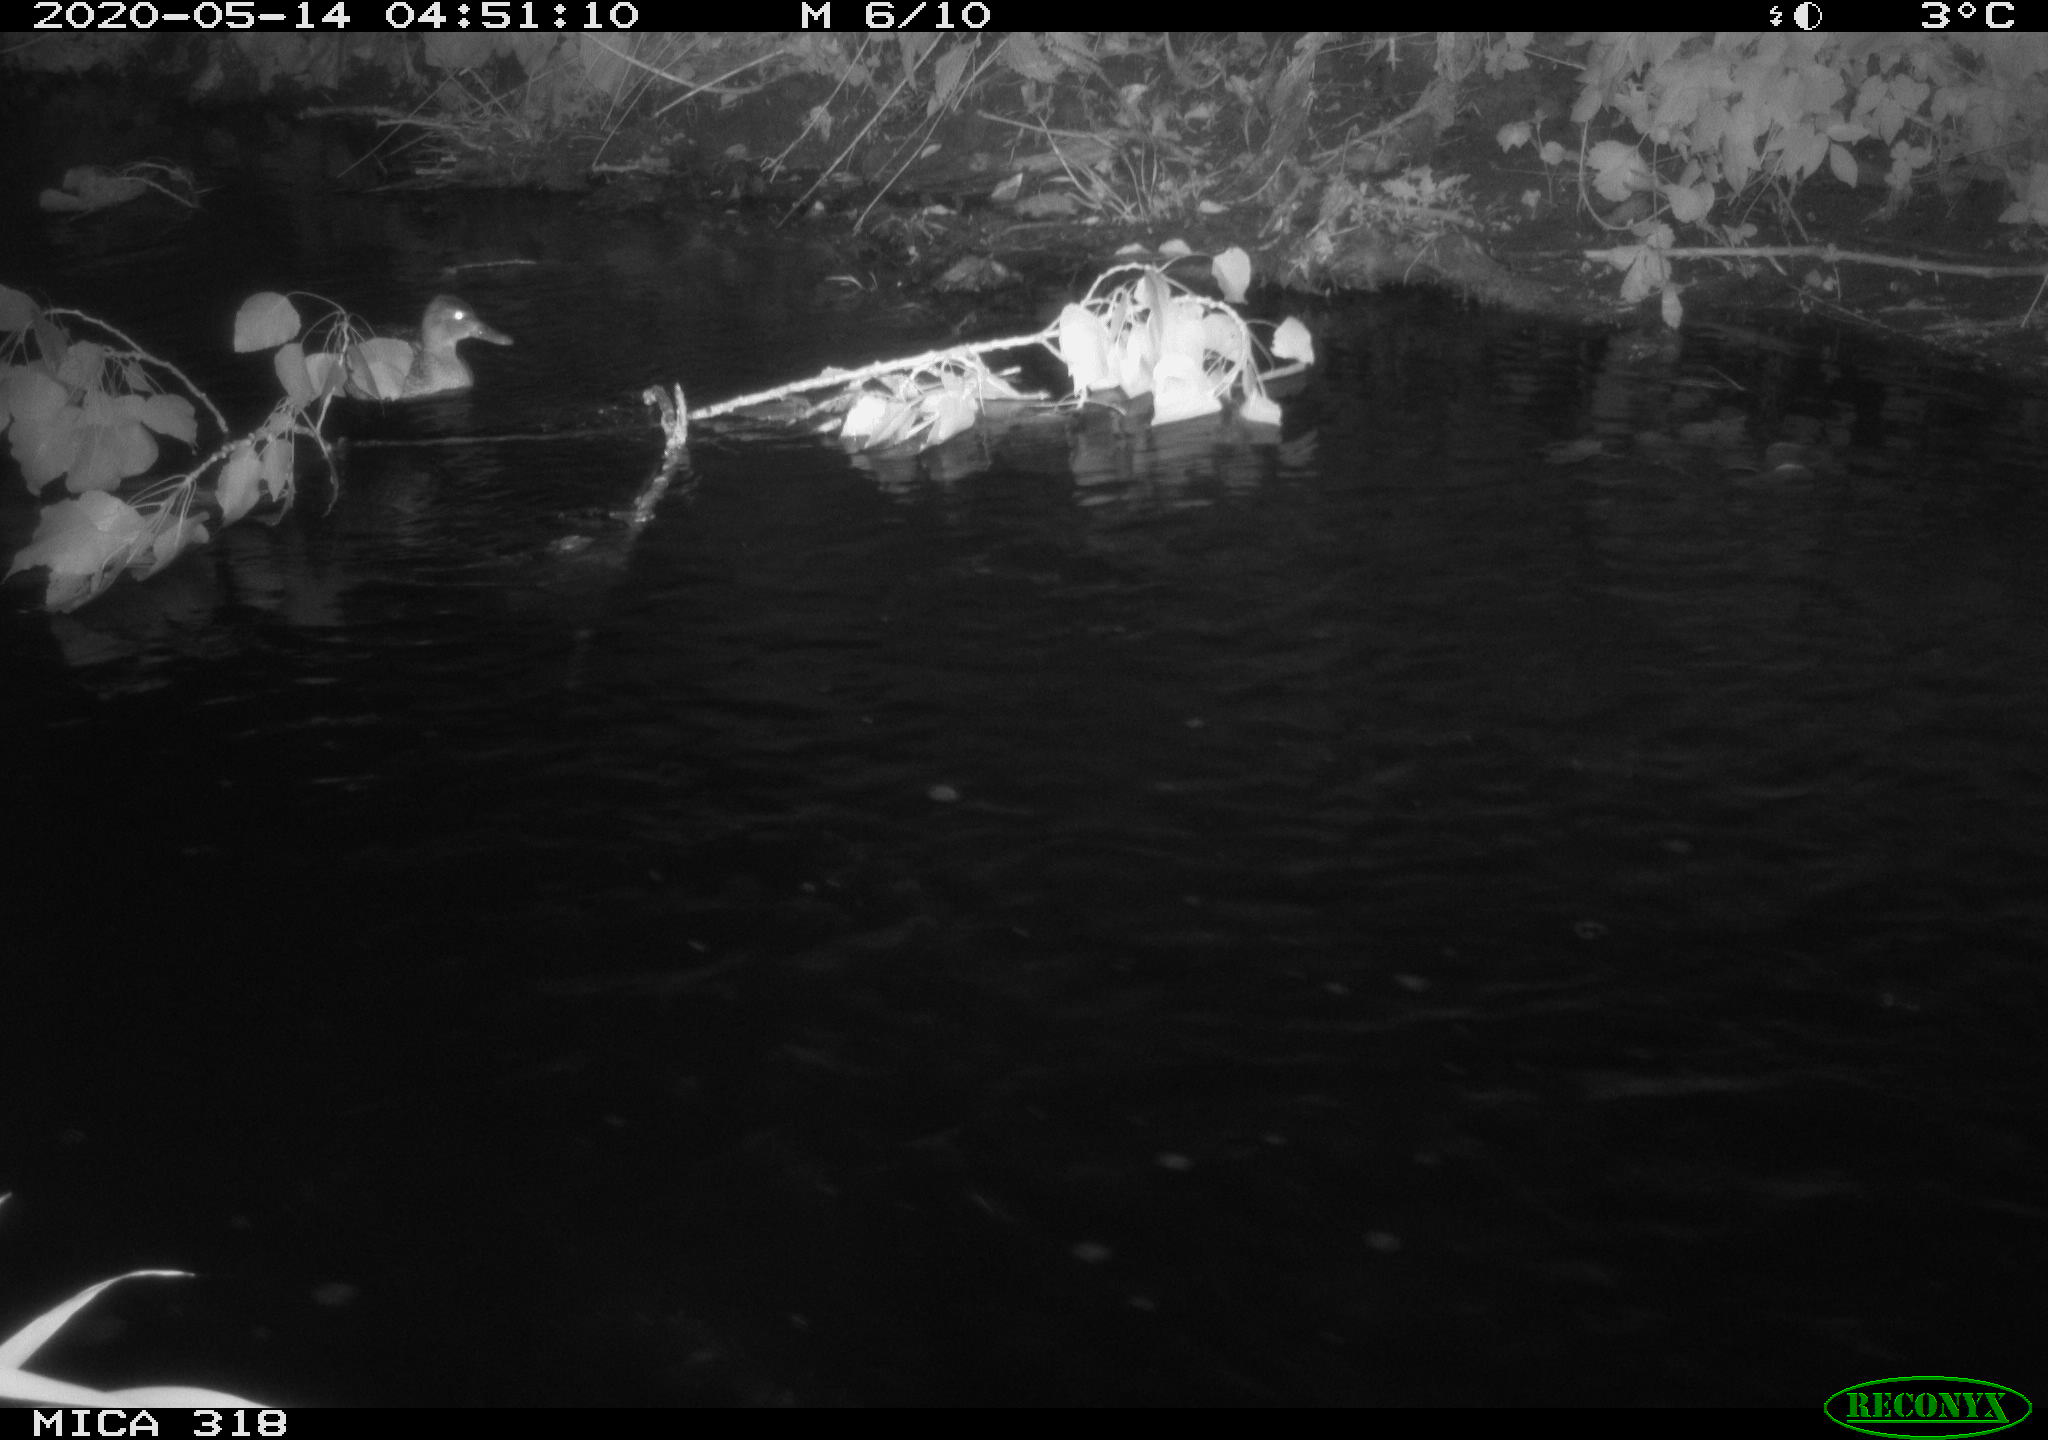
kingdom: Animalia
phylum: Chordata
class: Aves
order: Anseriformes
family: Anatidae
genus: Anas
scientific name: Anas platyrhynchos
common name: Mallard
